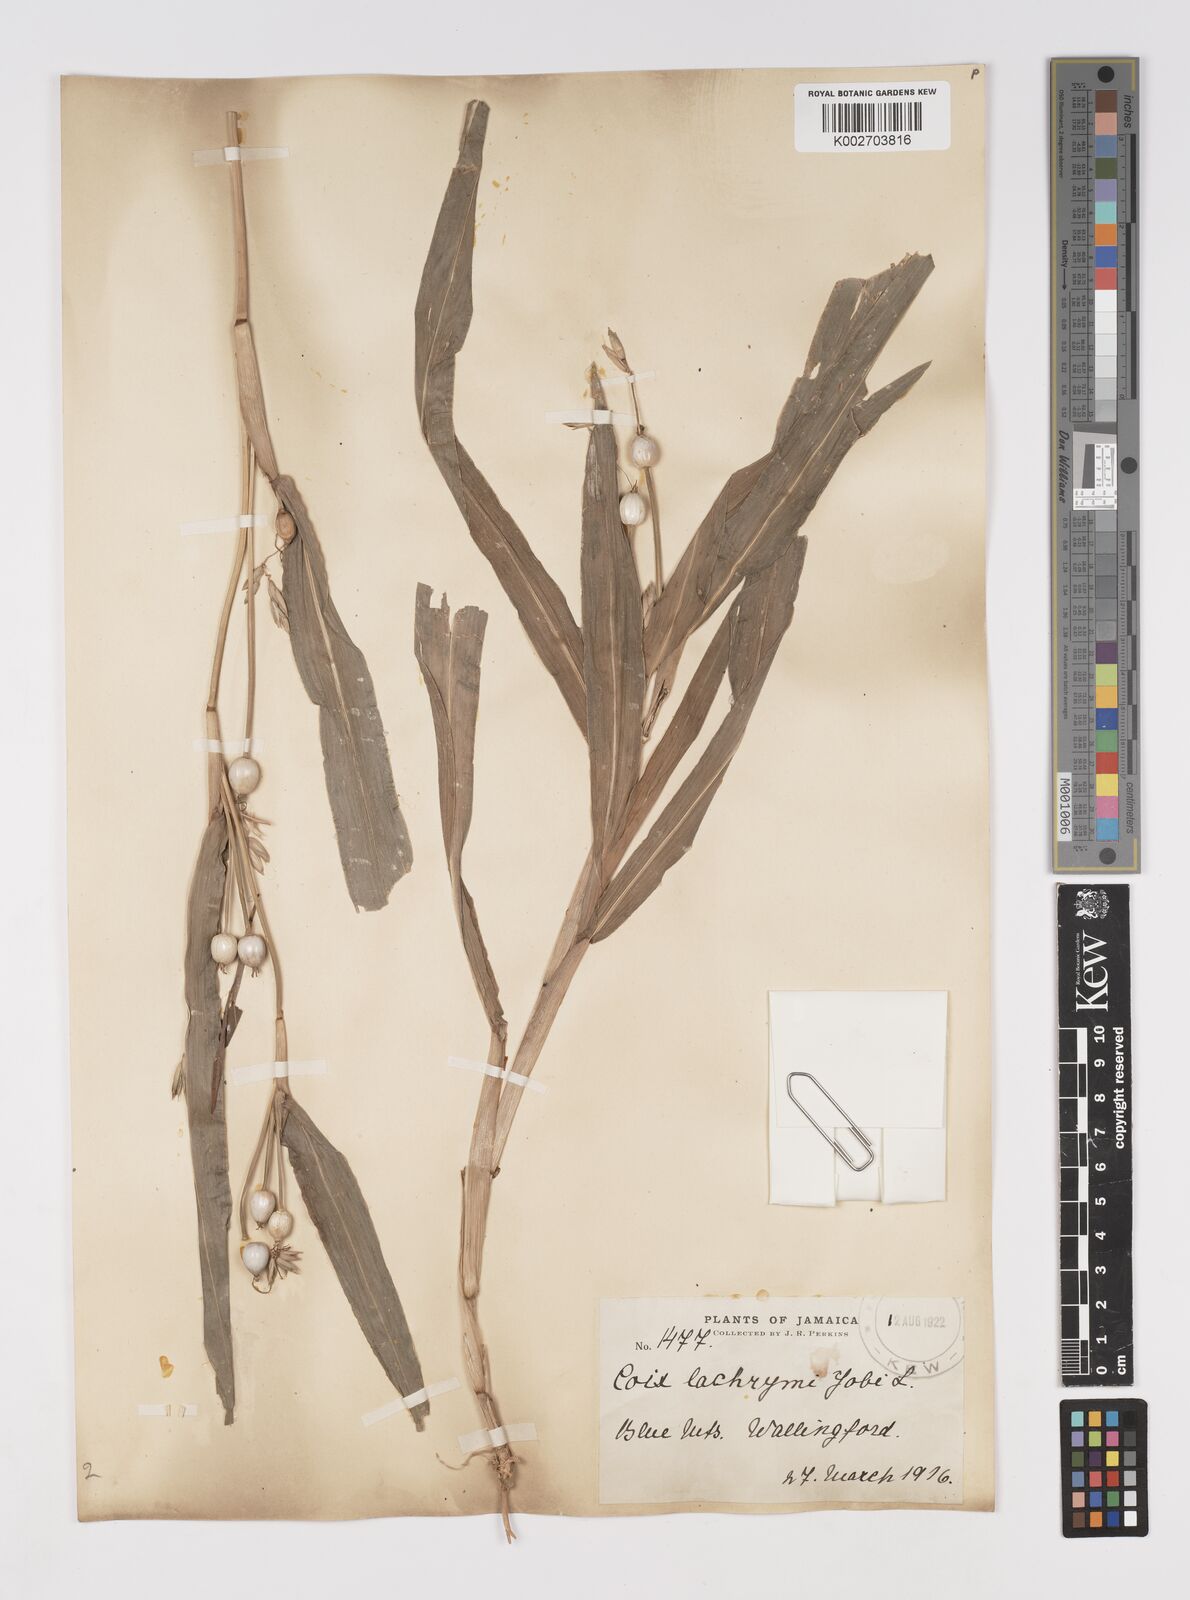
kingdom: Plantae
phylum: Tracheophyta
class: Liliopsida
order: Poales
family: Poaceae
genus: Coix
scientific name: Coix lacryma-jobi
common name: Job's tears
